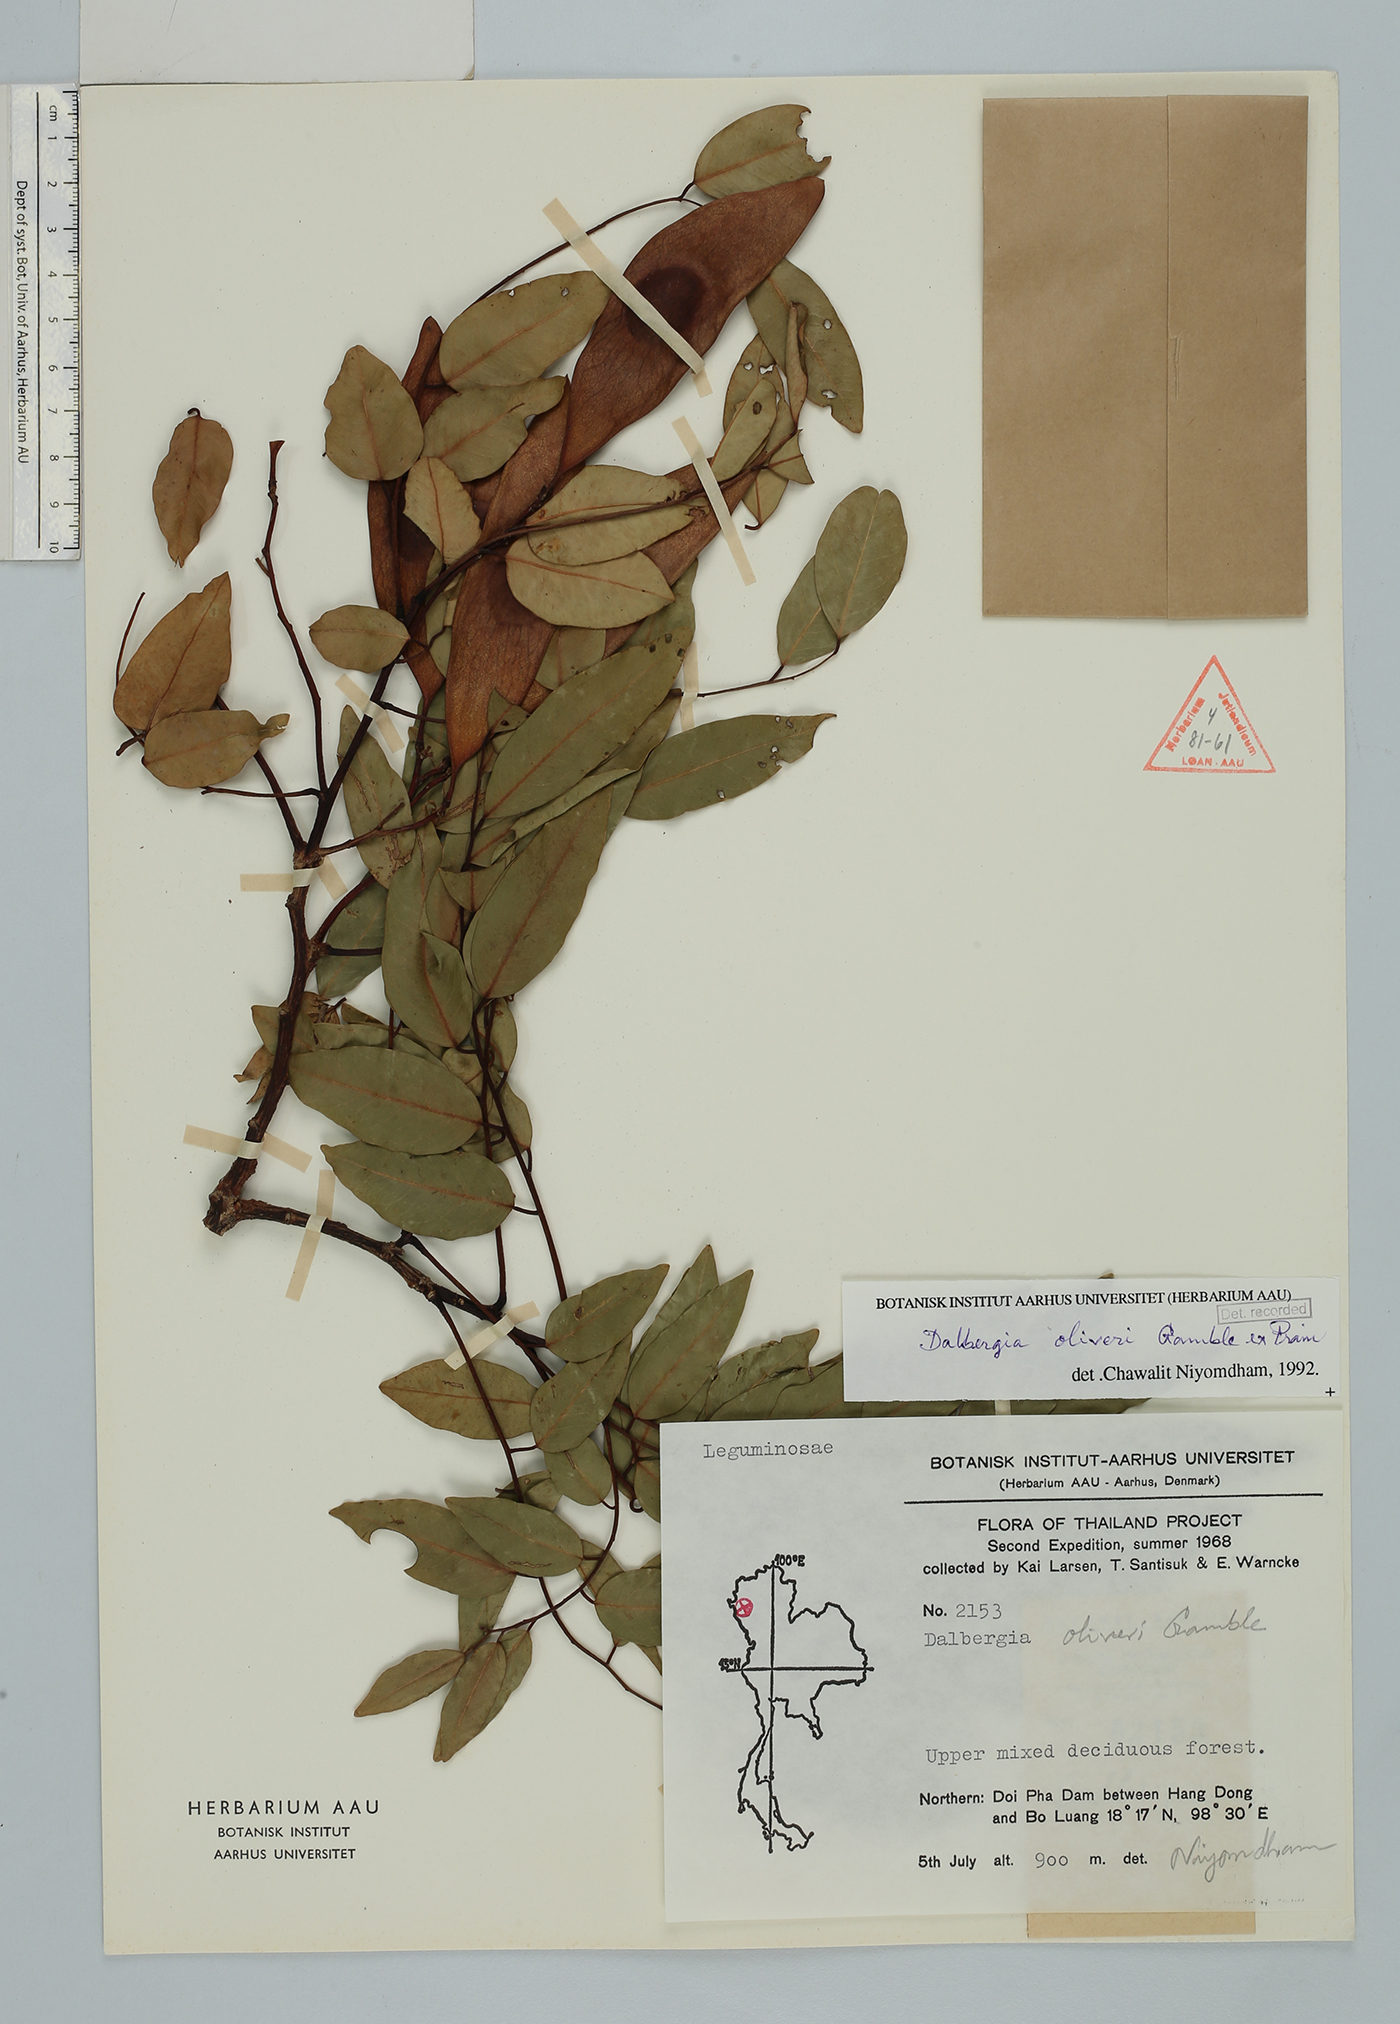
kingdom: Plantae
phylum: Tracheophyta
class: Magnoliopsida
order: Fabales
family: Fabaceae
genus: Dalbergia
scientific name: Dalbergia oliveri
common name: Burmese rosewood
